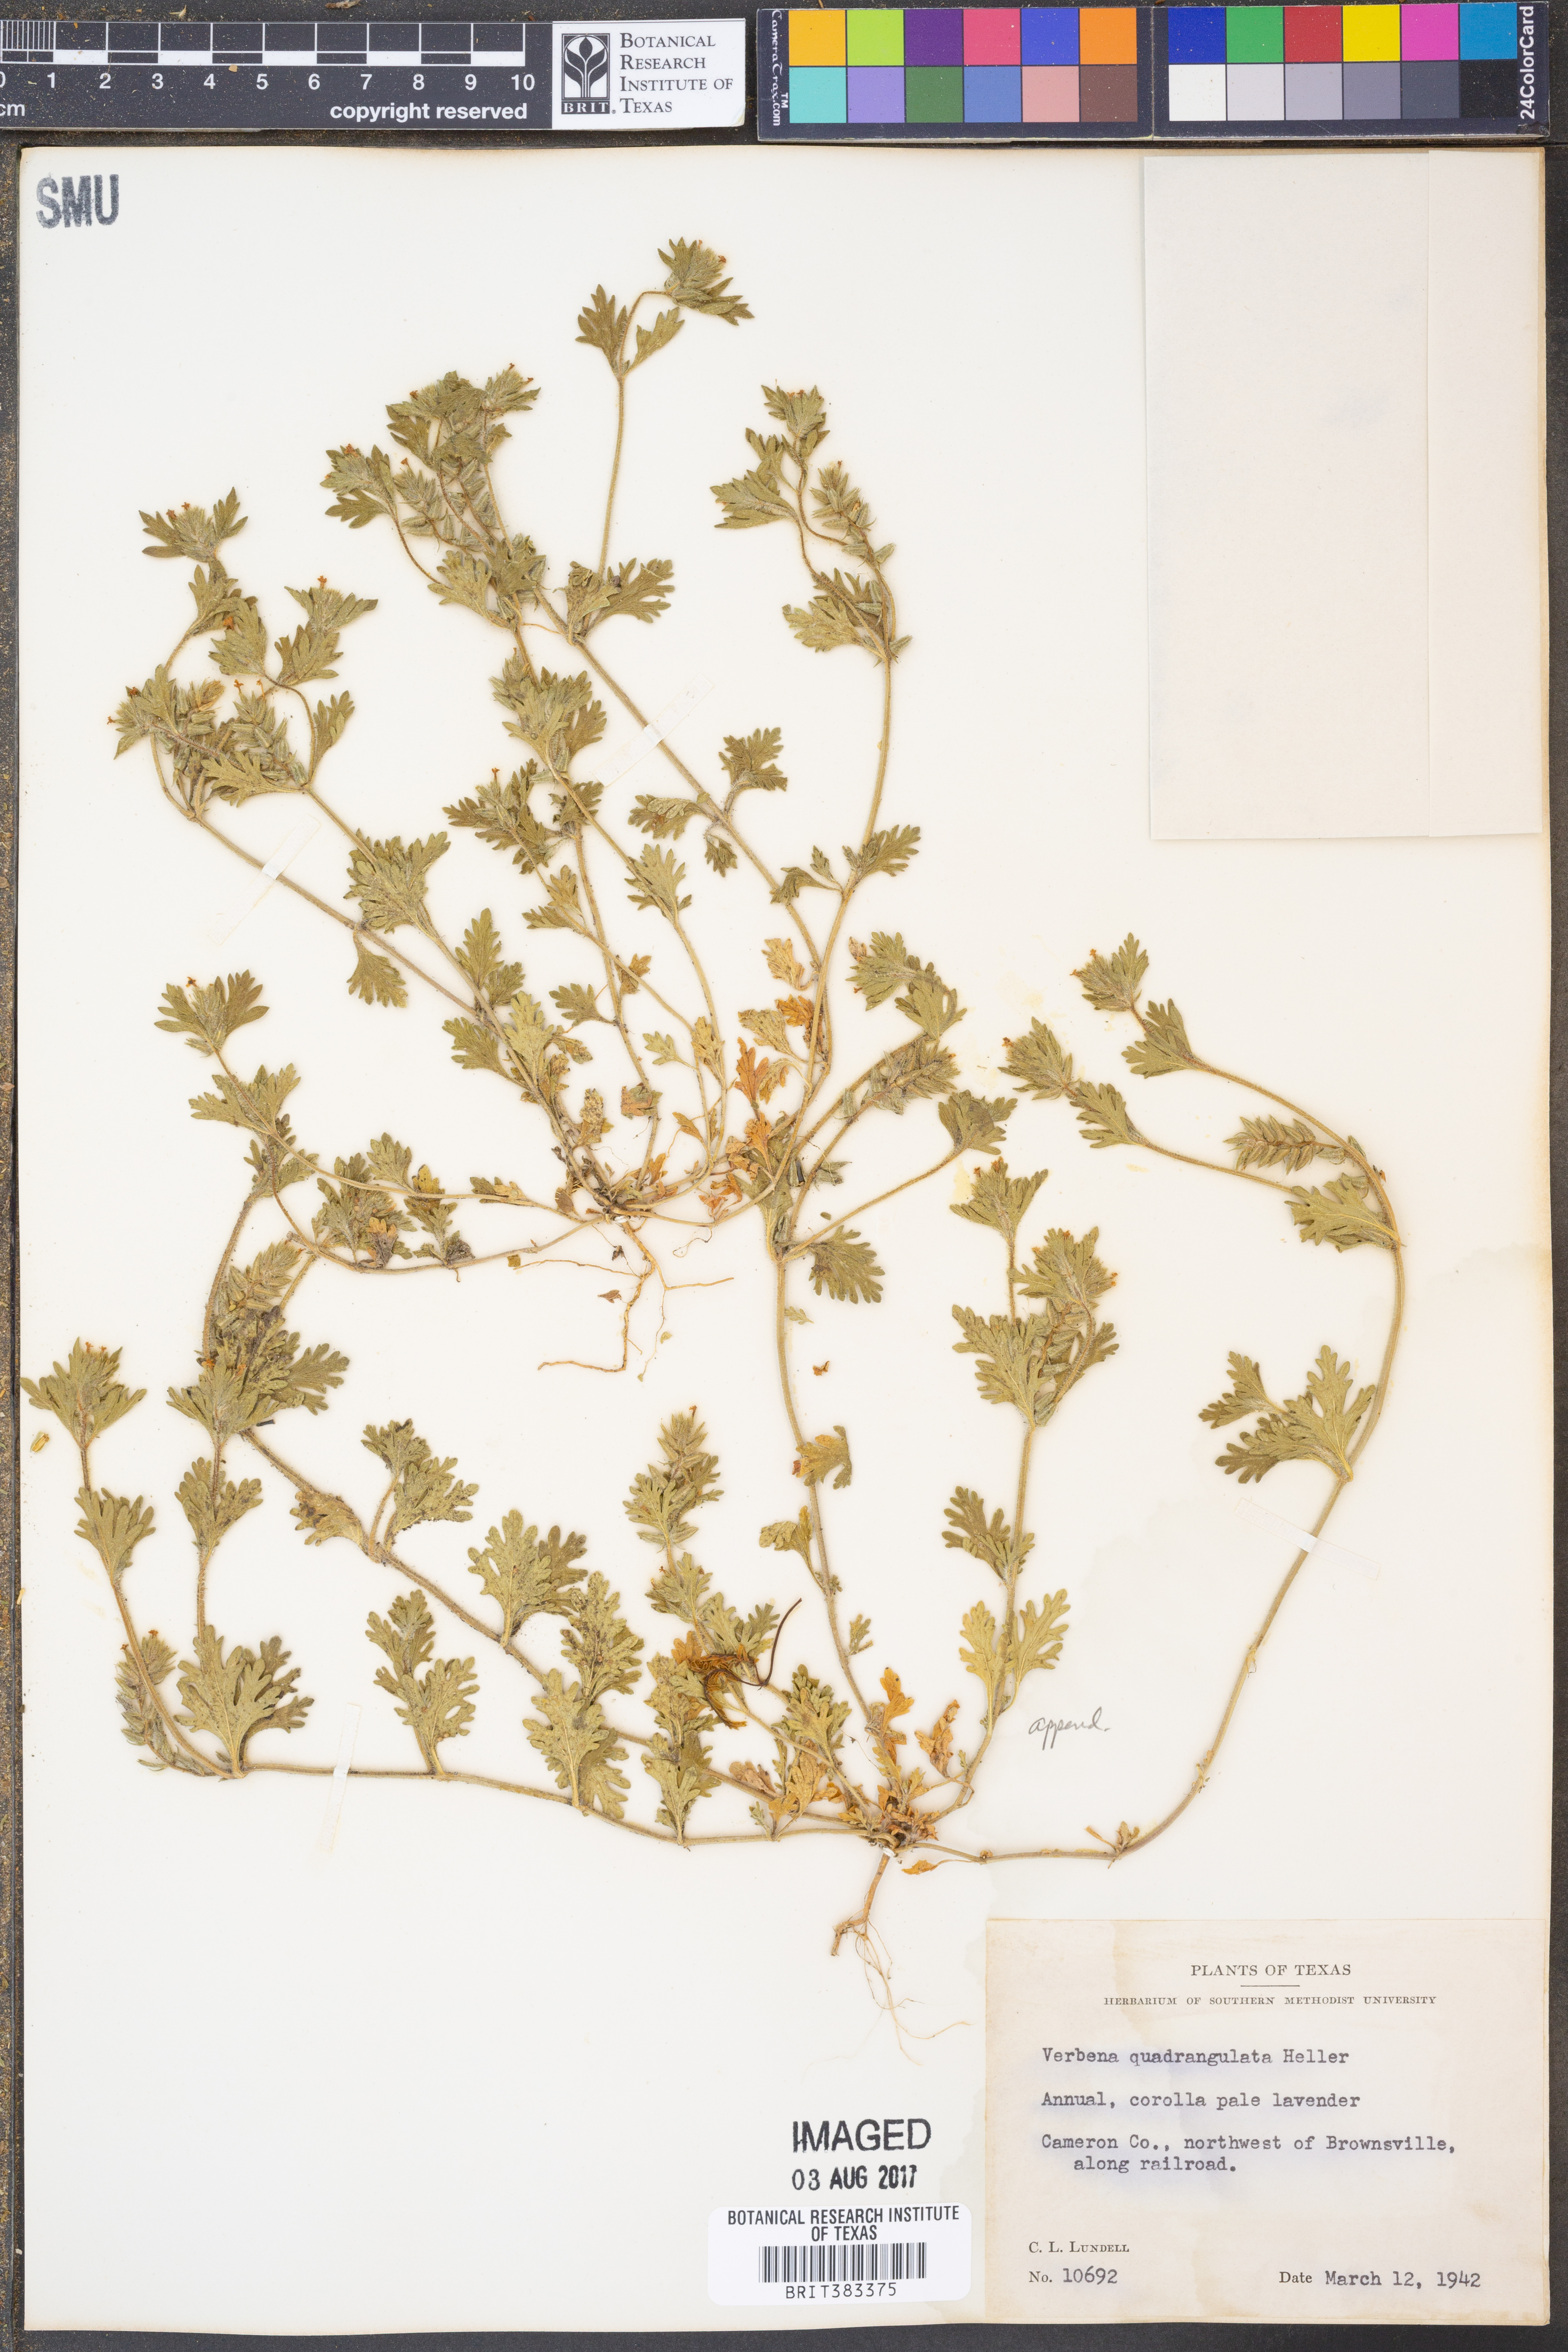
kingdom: Plantae
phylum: Tracheophyta
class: Magnoliopsida
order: Lamiales
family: Verbenaceae
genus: Verbena
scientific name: Verbena quadrangulata
